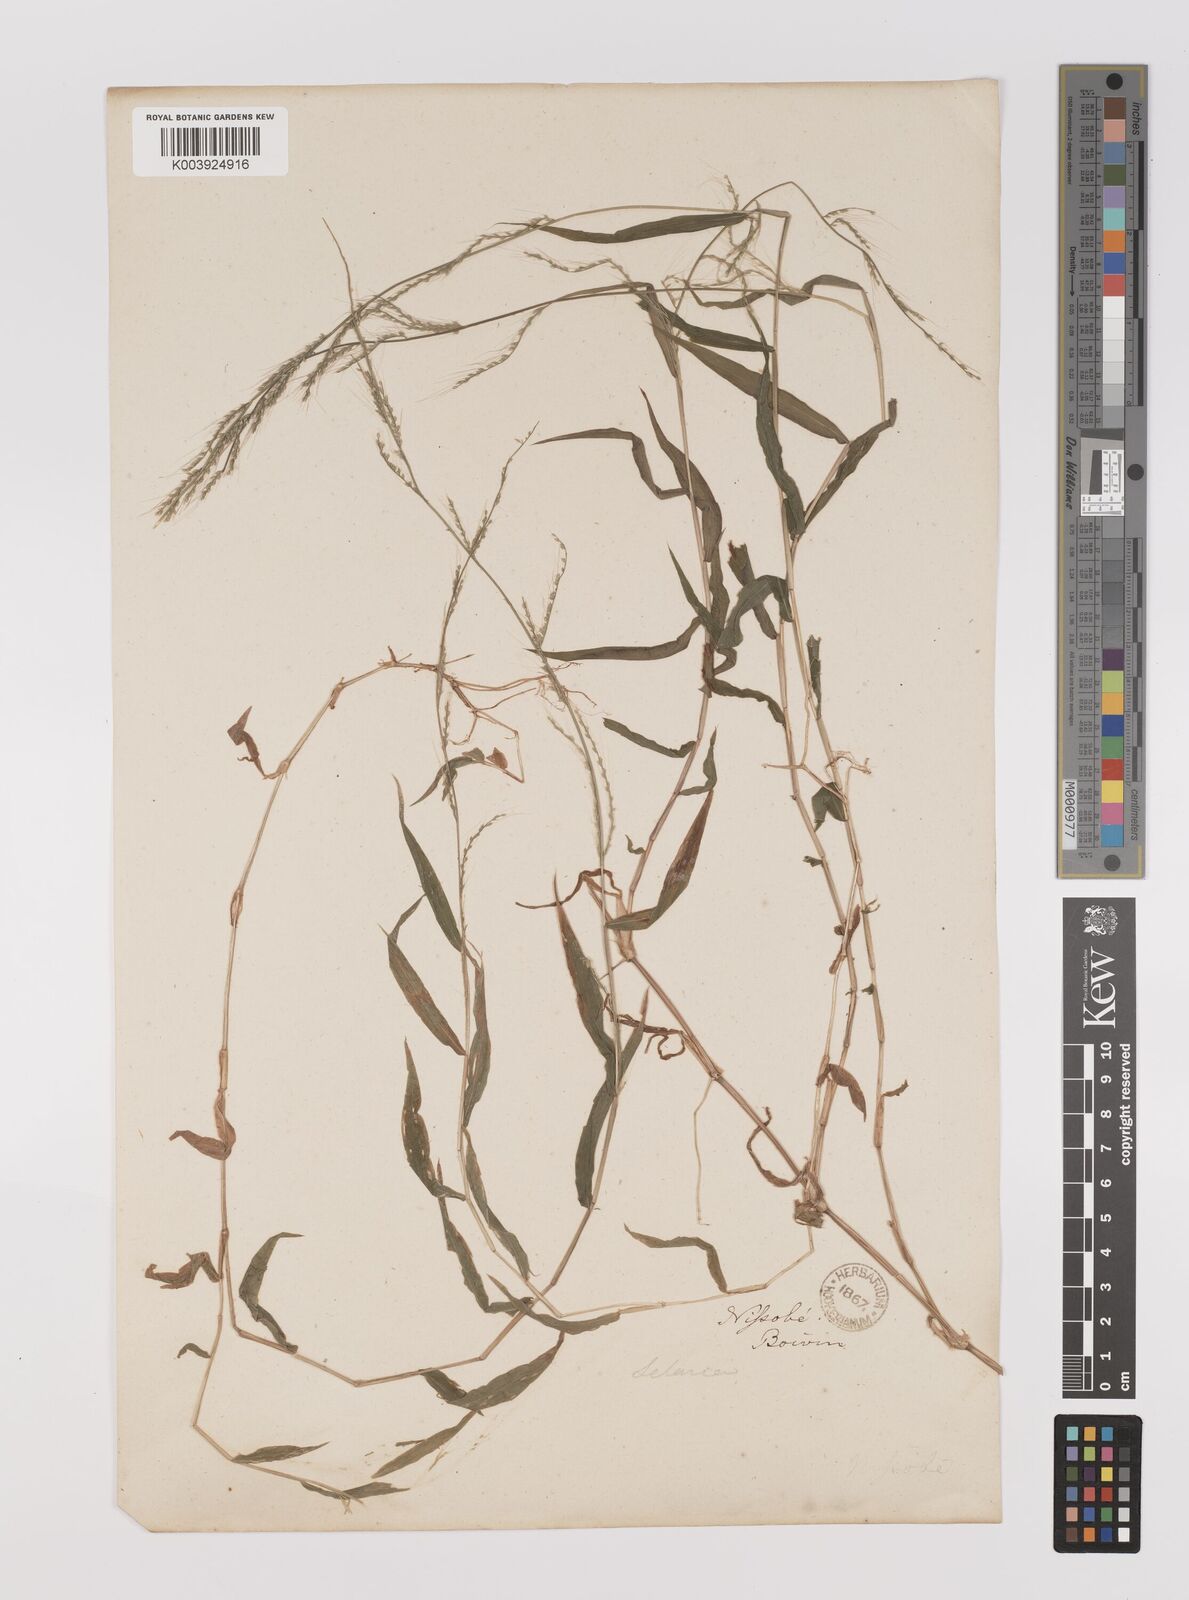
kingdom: Plantae
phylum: Tracheophyta
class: Liliopsida
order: Poales
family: Poaceae
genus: Oplismenus
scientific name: Oplismenus
